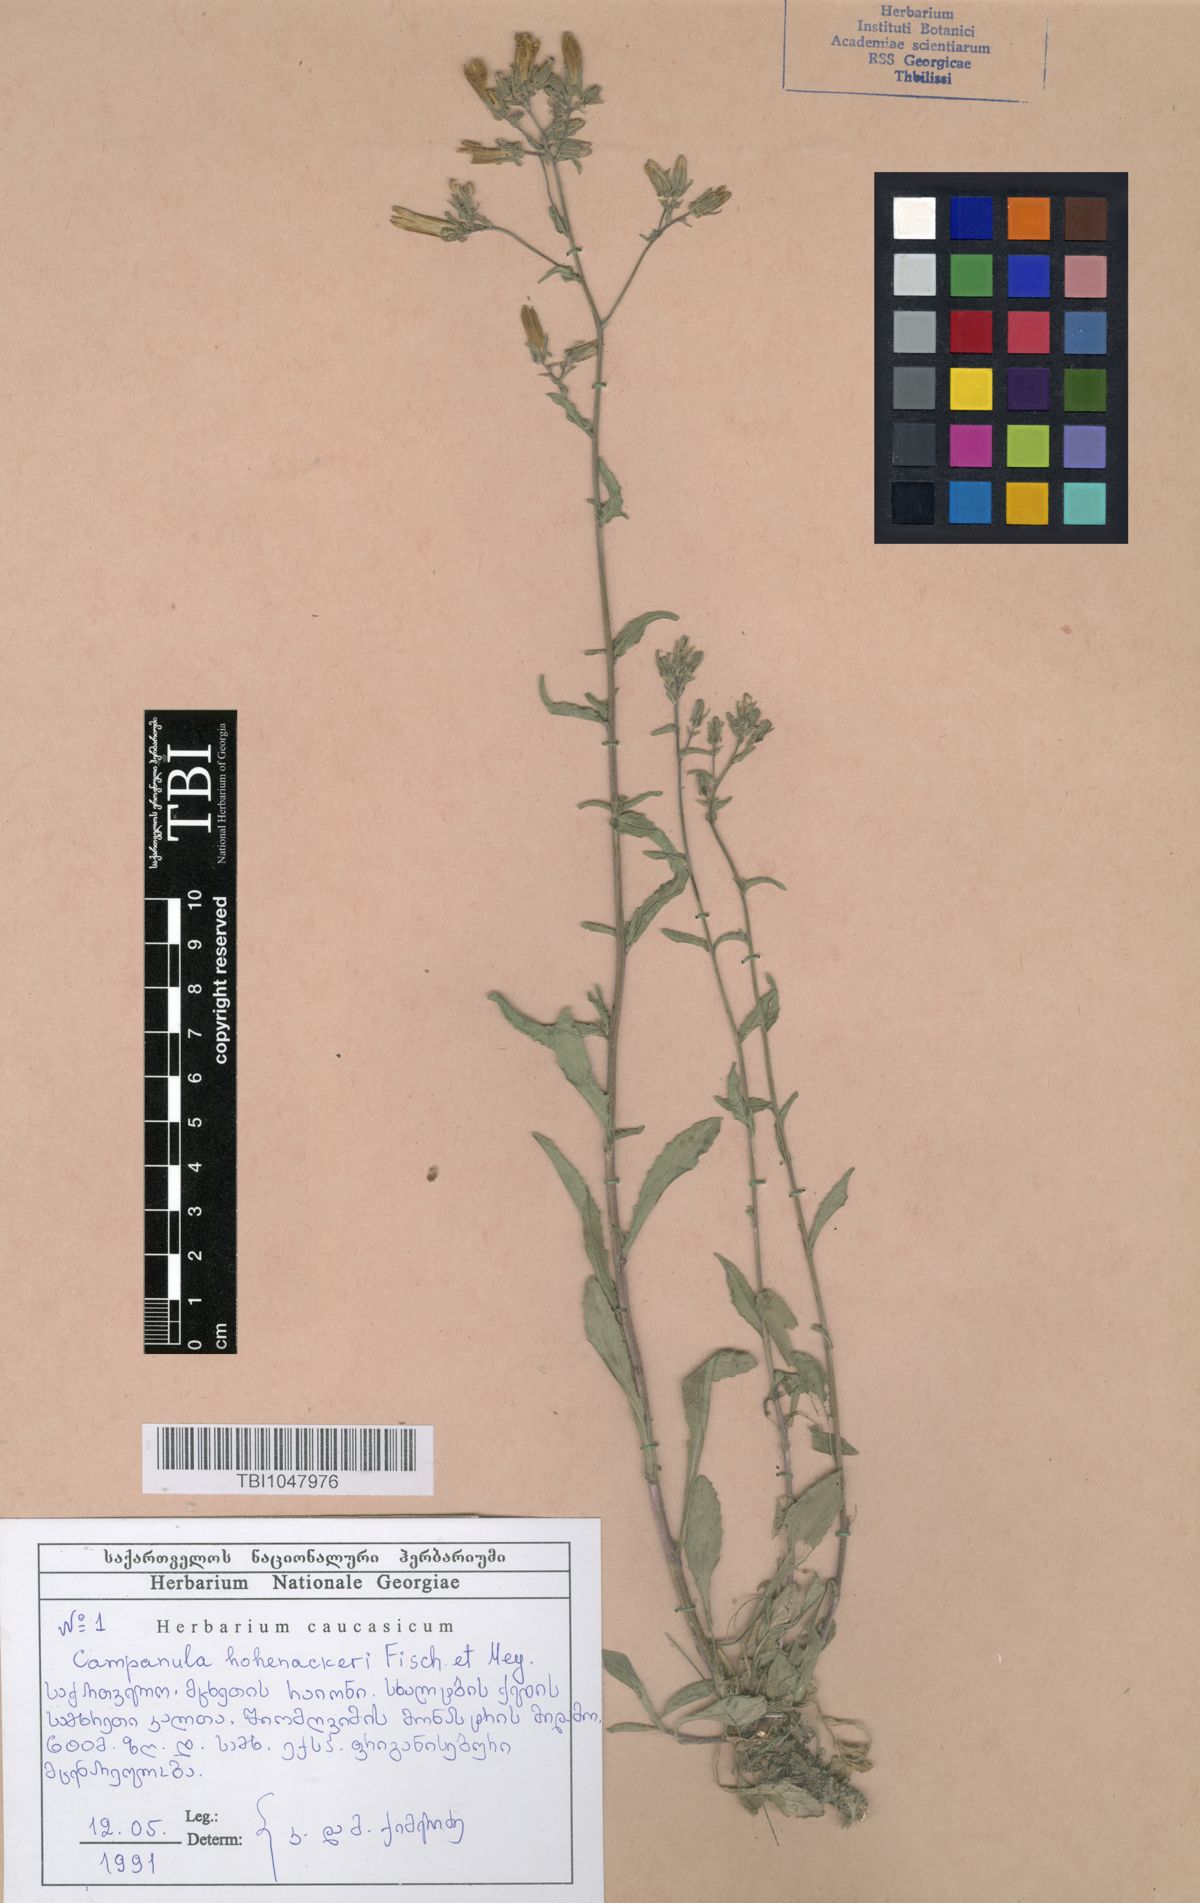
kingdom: Plantae
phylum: Tracheophyta
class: Magnoliopsida
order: Asterales
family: Campanulaceae
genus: Campanula
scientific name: Campanula sibirica
